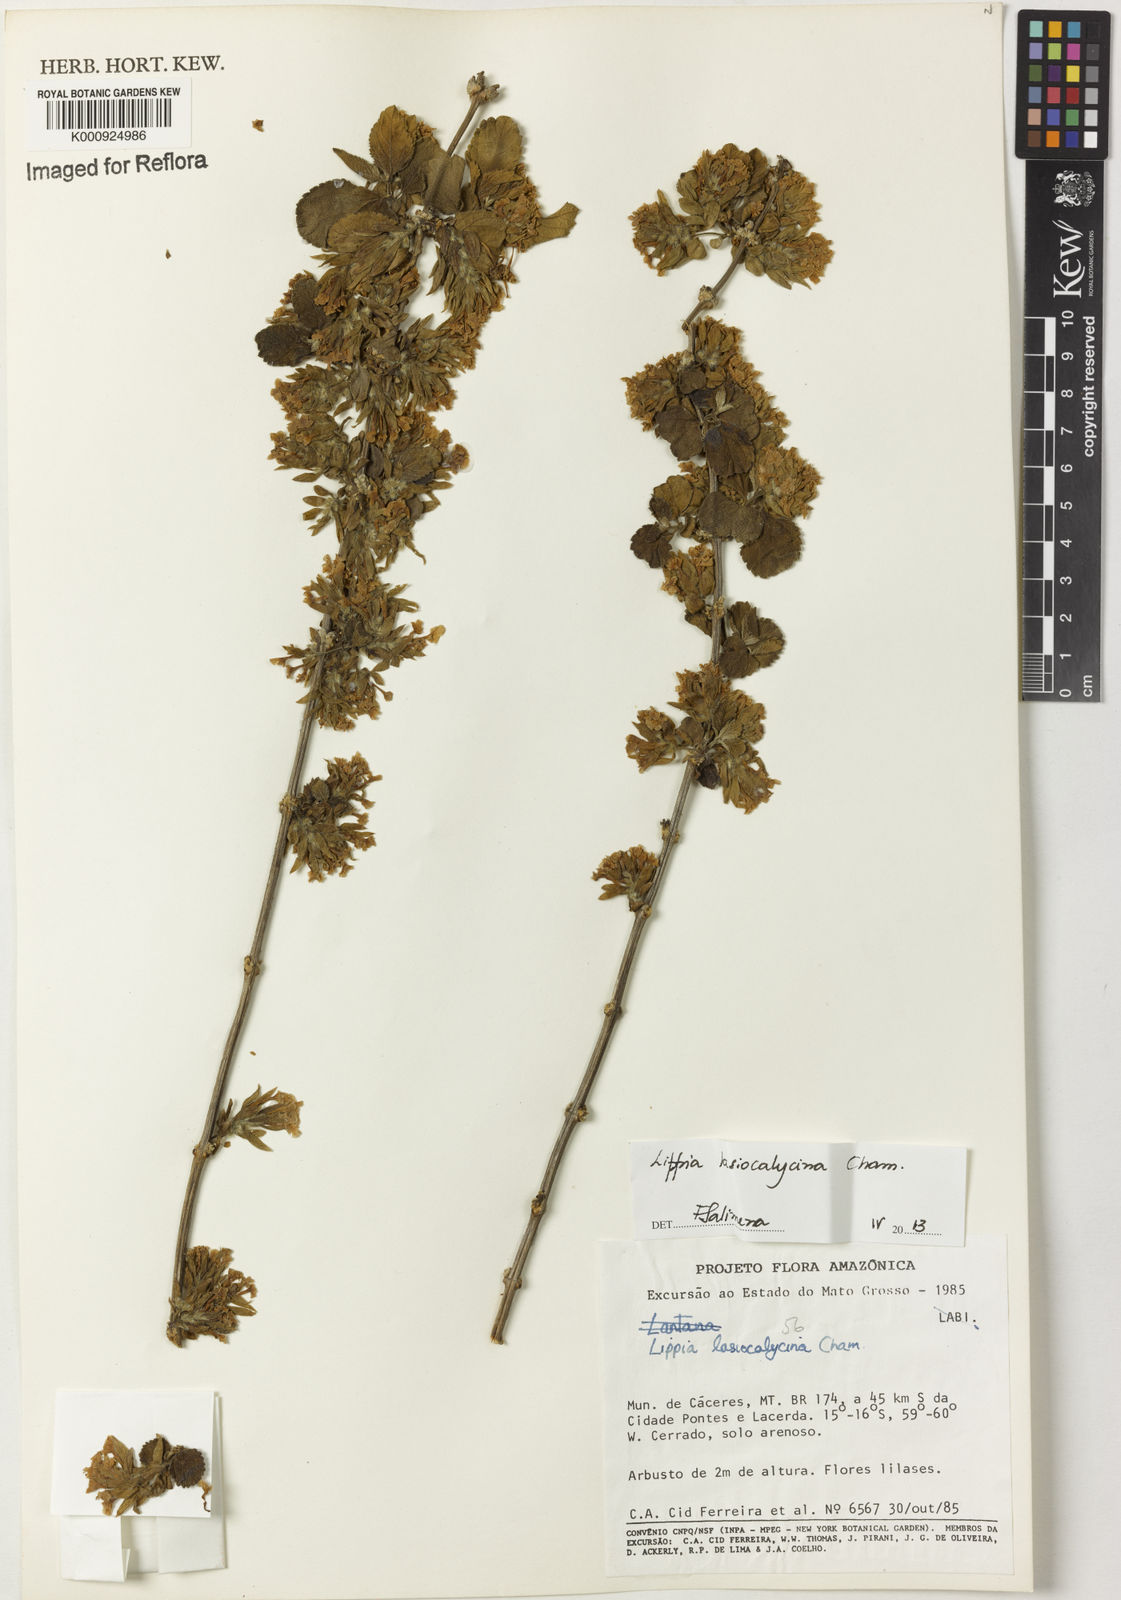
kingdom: Plantae
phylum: Tracheophyta
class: Magnoliopsida
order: Lamiales
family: Verbenaceae
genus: Lippia
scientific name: Lippia lasiocalycina
